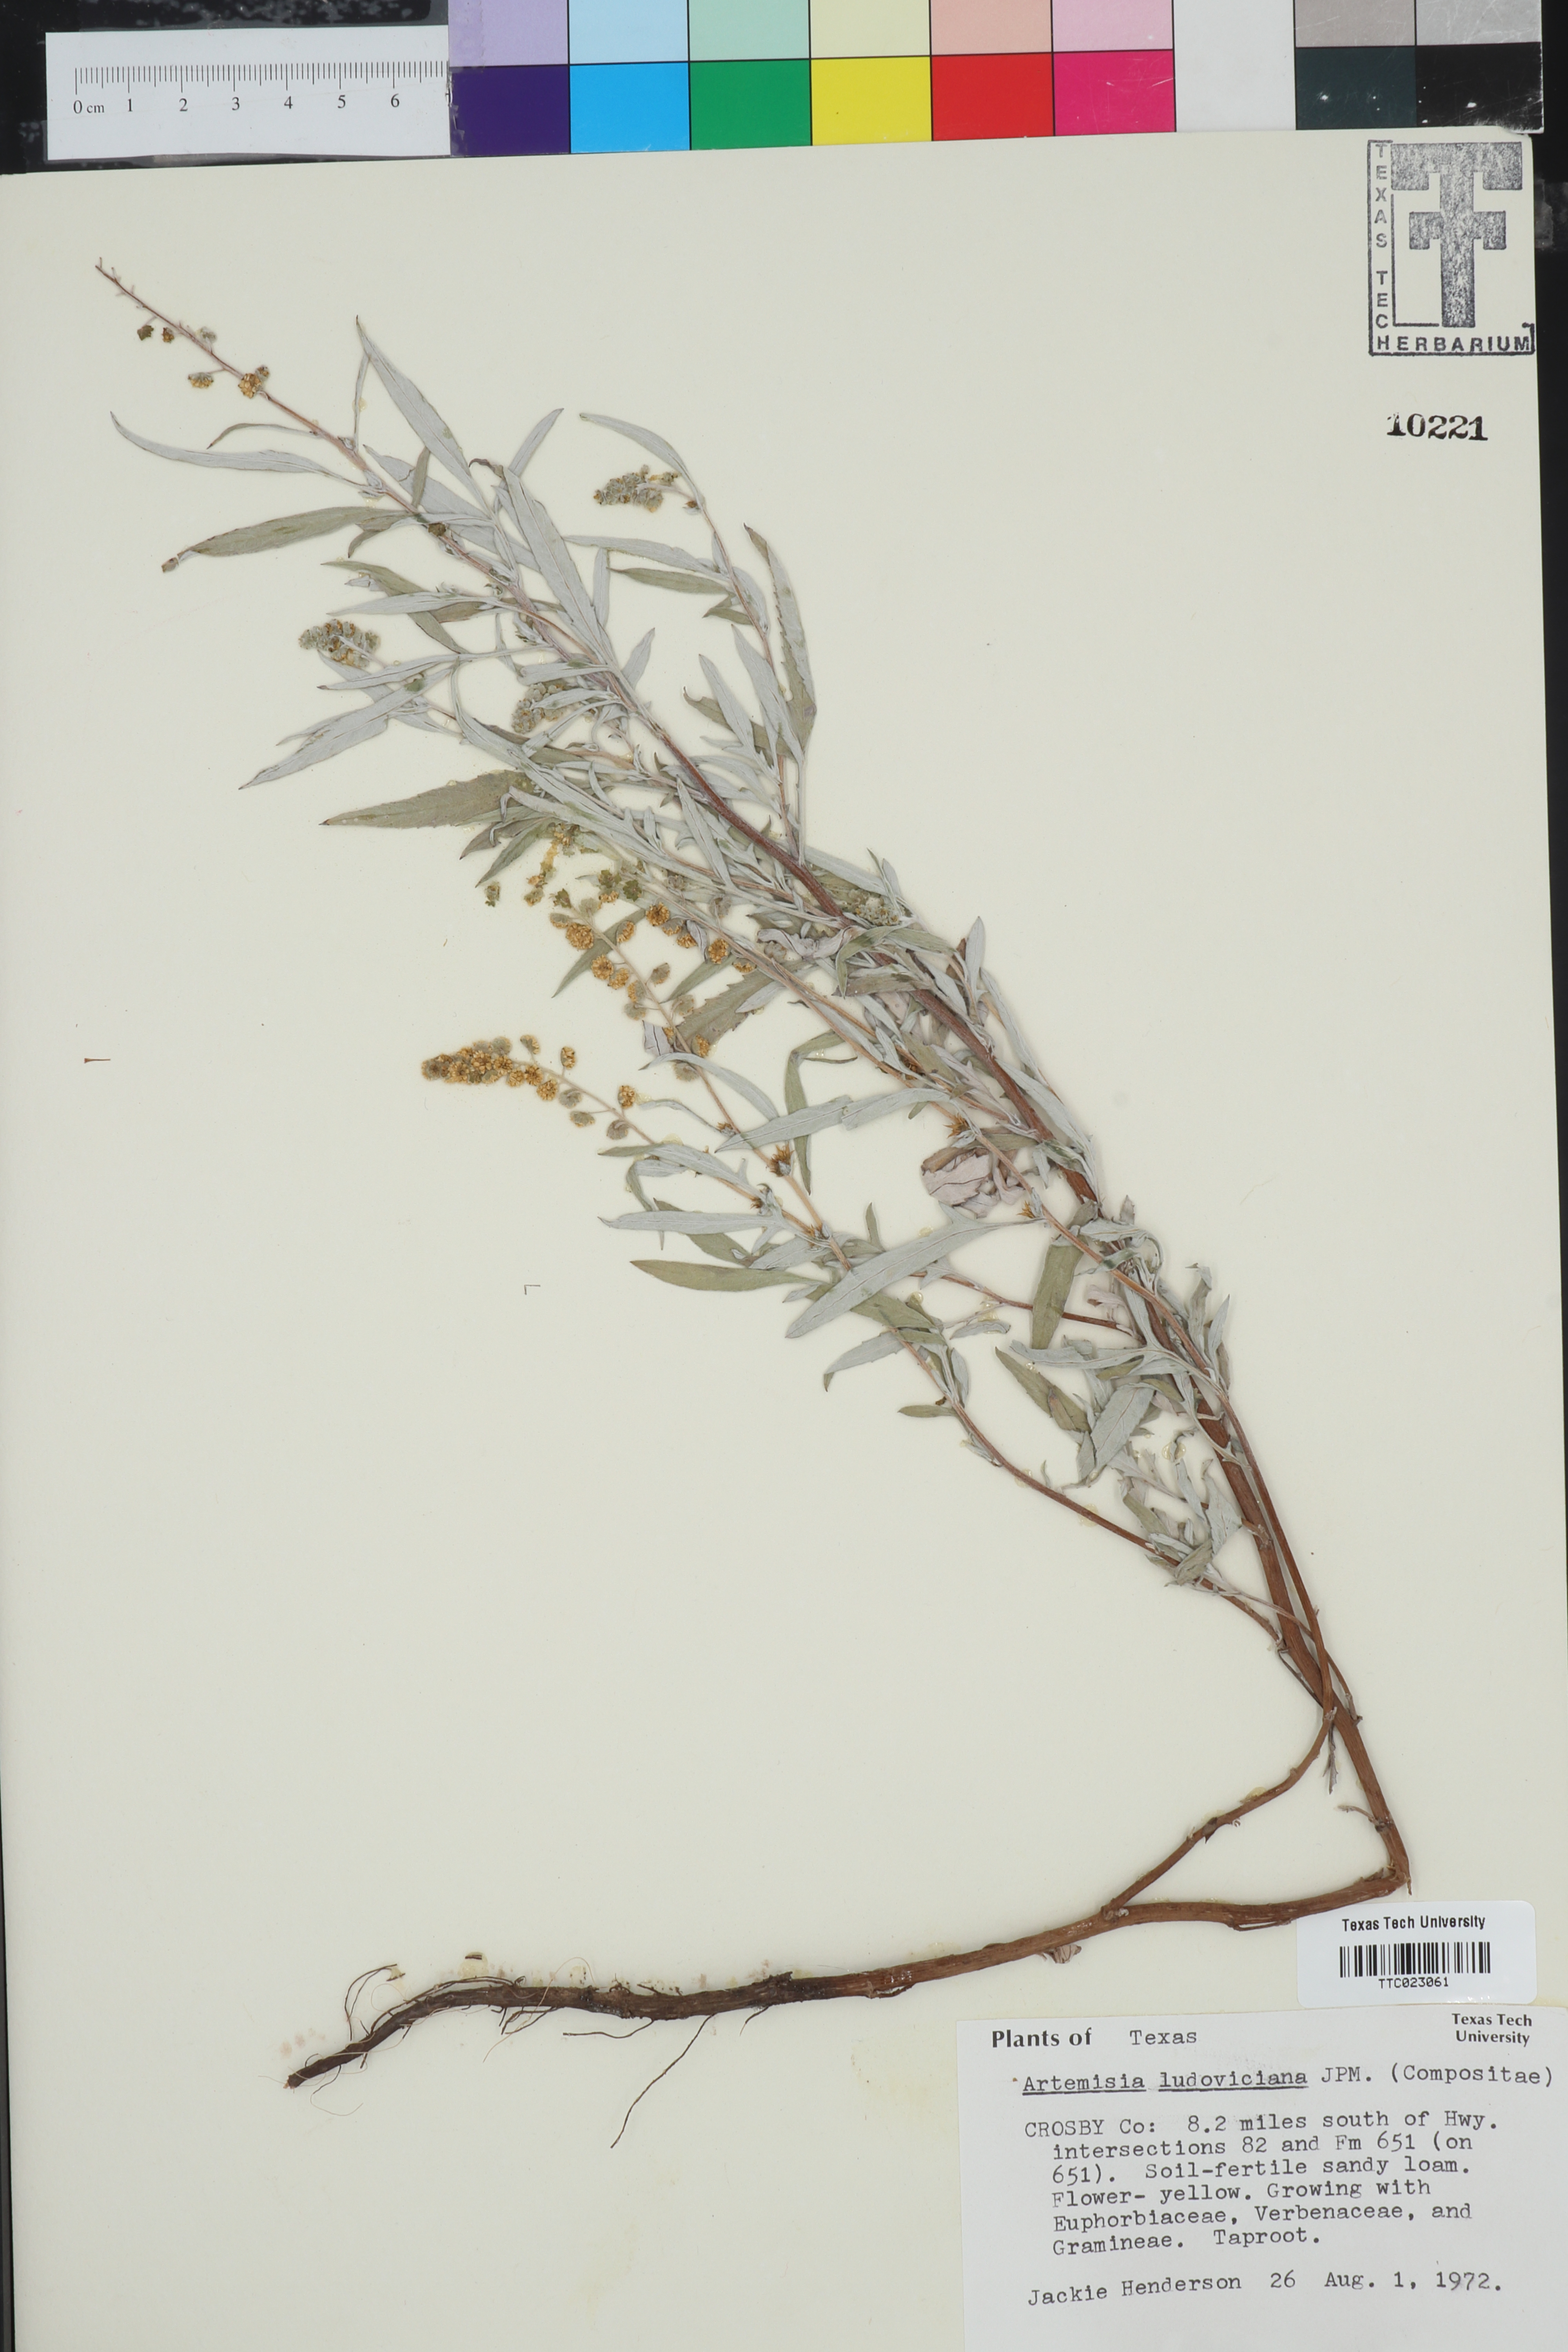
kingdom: Plantae
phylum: Tracheophyta
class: Magnoliopsida
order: Asterales
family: Asteraceae
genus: Artemisia
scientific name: Artemisia ludoviciana
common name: Western mugwort
